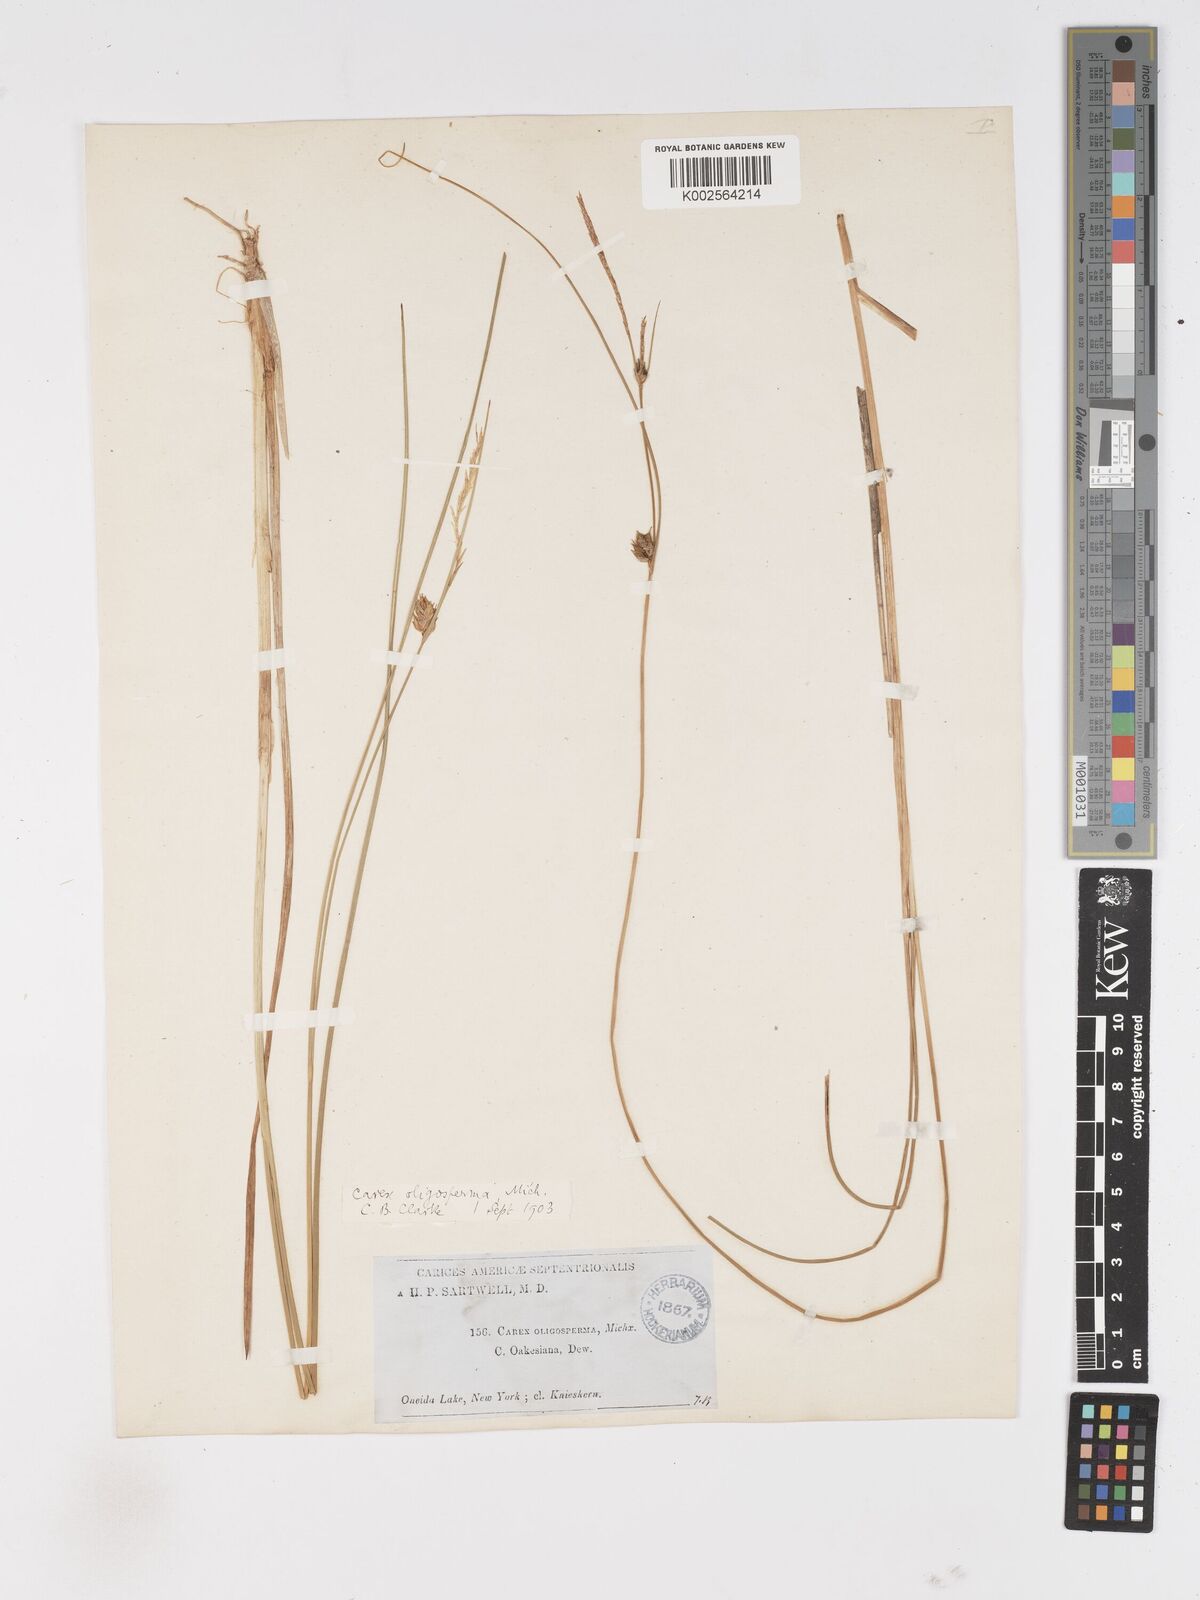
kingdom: Plantae
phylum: Tracheophyta
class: Liliopsida
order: Poales
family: Cyperaceae
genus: Carex
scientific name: Carex oligosperma
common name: Few-seed sedge
